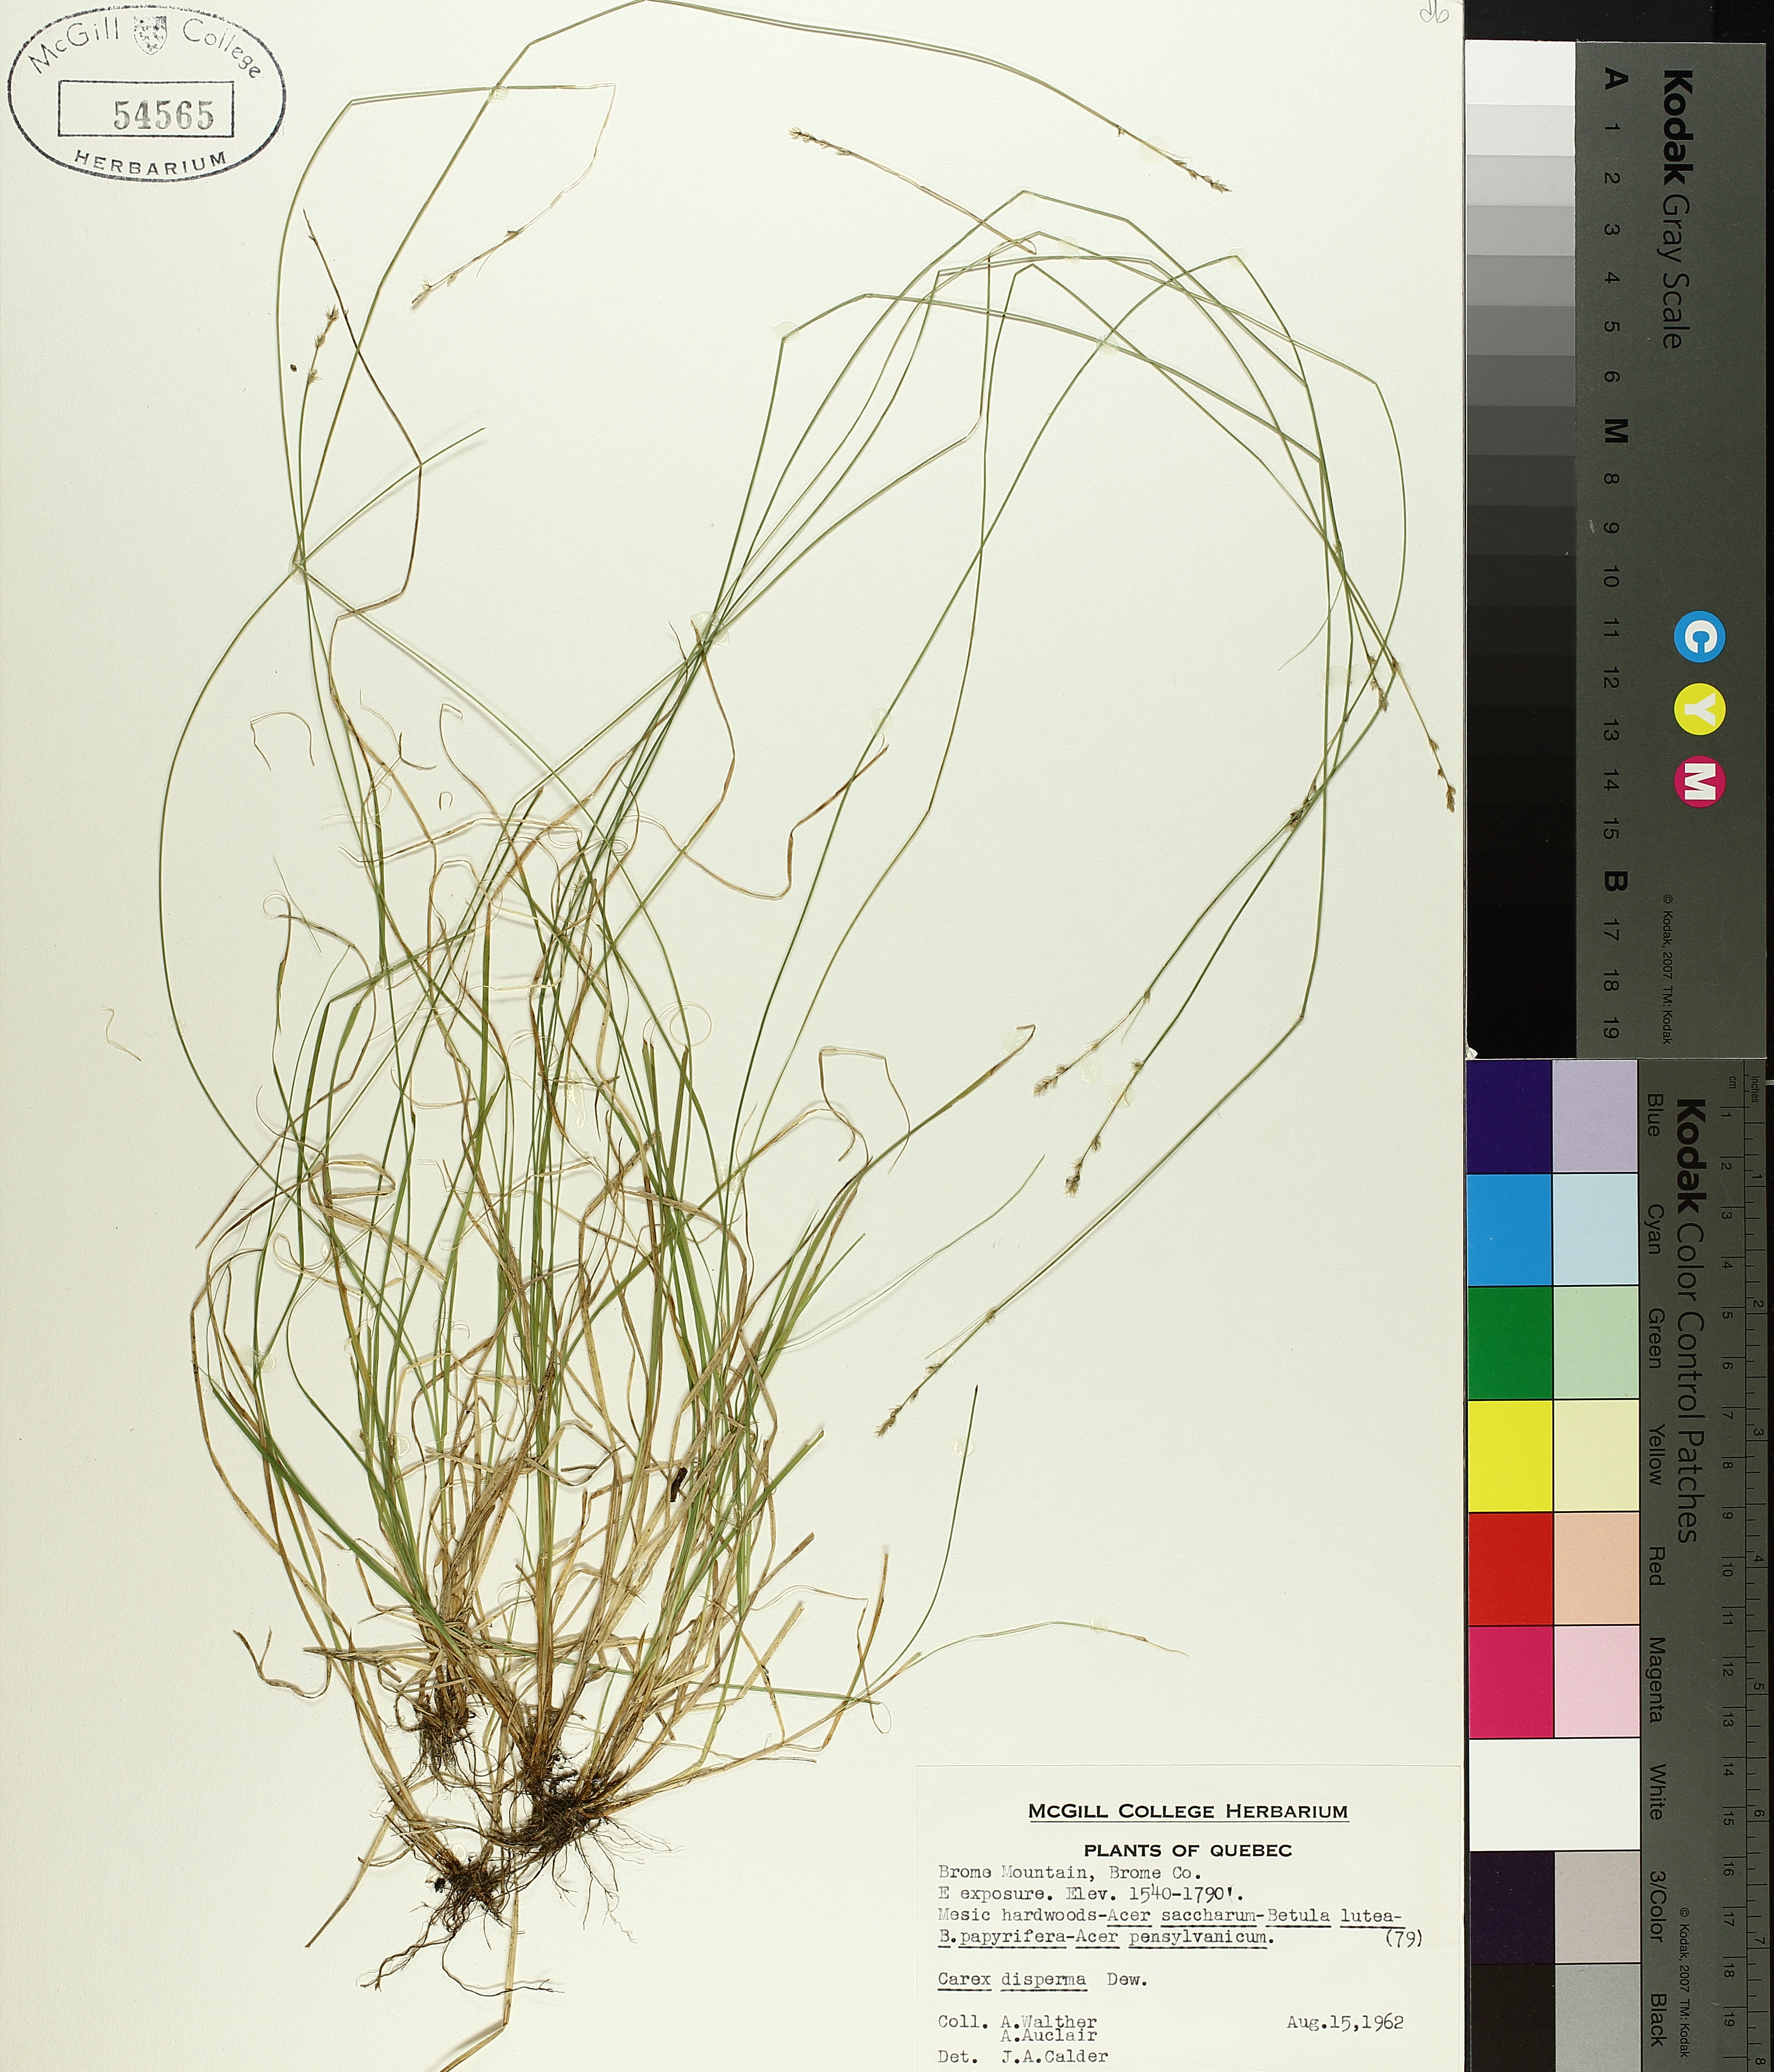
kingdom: Plantae
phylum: Tracheophyta
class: Liliopsida
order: Poales
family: Cyperaceae
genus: Carex
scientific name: Carex disperma
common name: Short-leaved sedge
